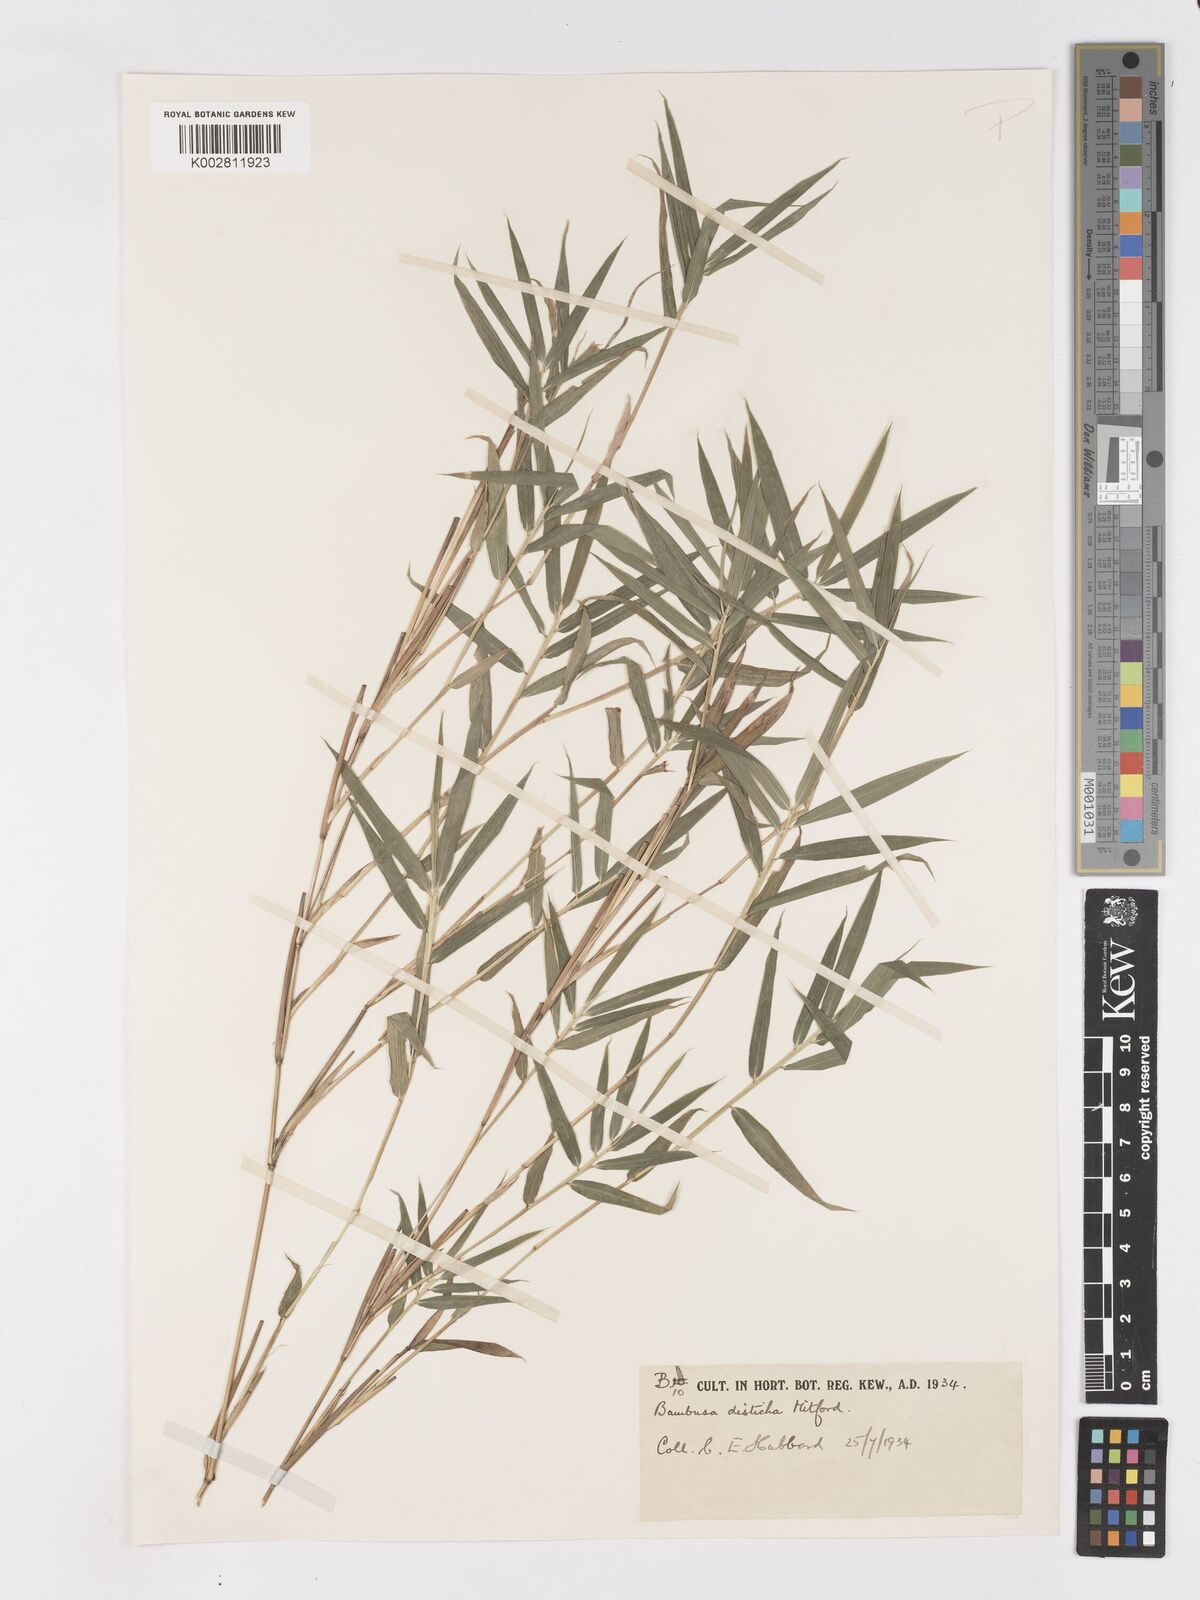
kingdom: Plantae
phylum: Tracheophyta
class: Liliopsida
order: Poales
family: Poaceae
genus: Pleioblastus
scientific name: Pleioblastus distichus
